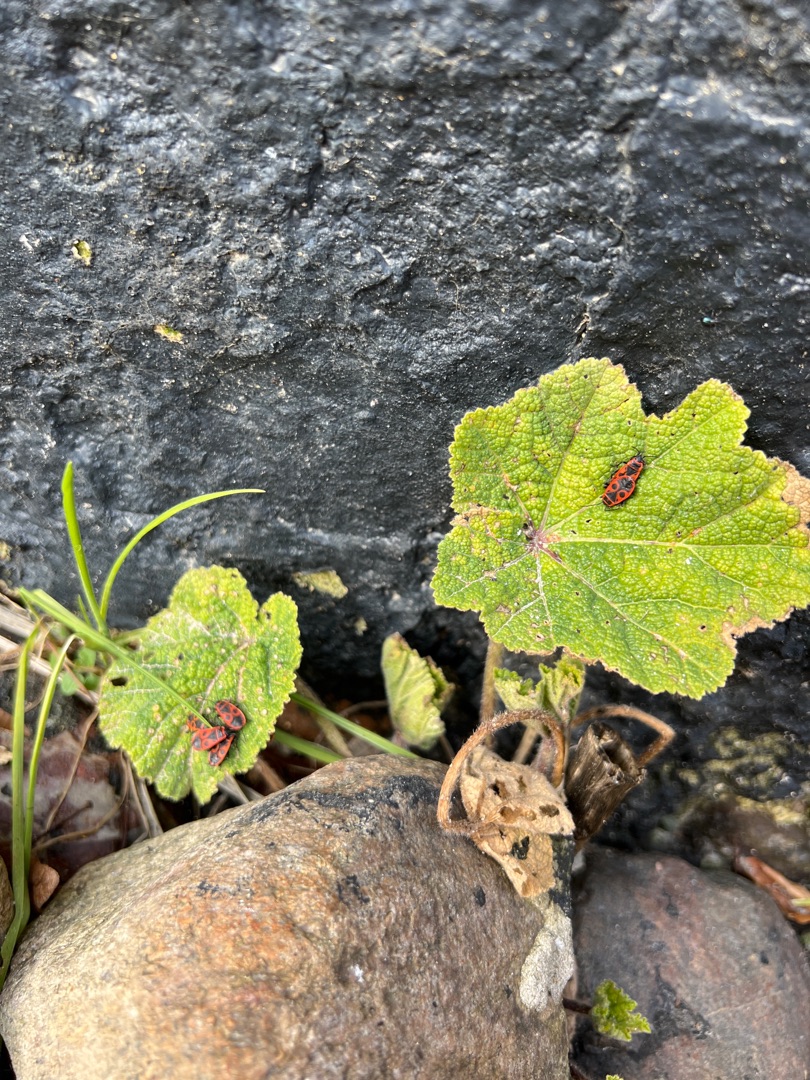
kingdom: Animalia
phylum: Arthropoda
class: Insecta
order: Hemiptera
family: Pyrrhocoridae
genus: Pyrrhocoris
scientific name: Pyrrhocoris apterus
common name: Ildtæge
